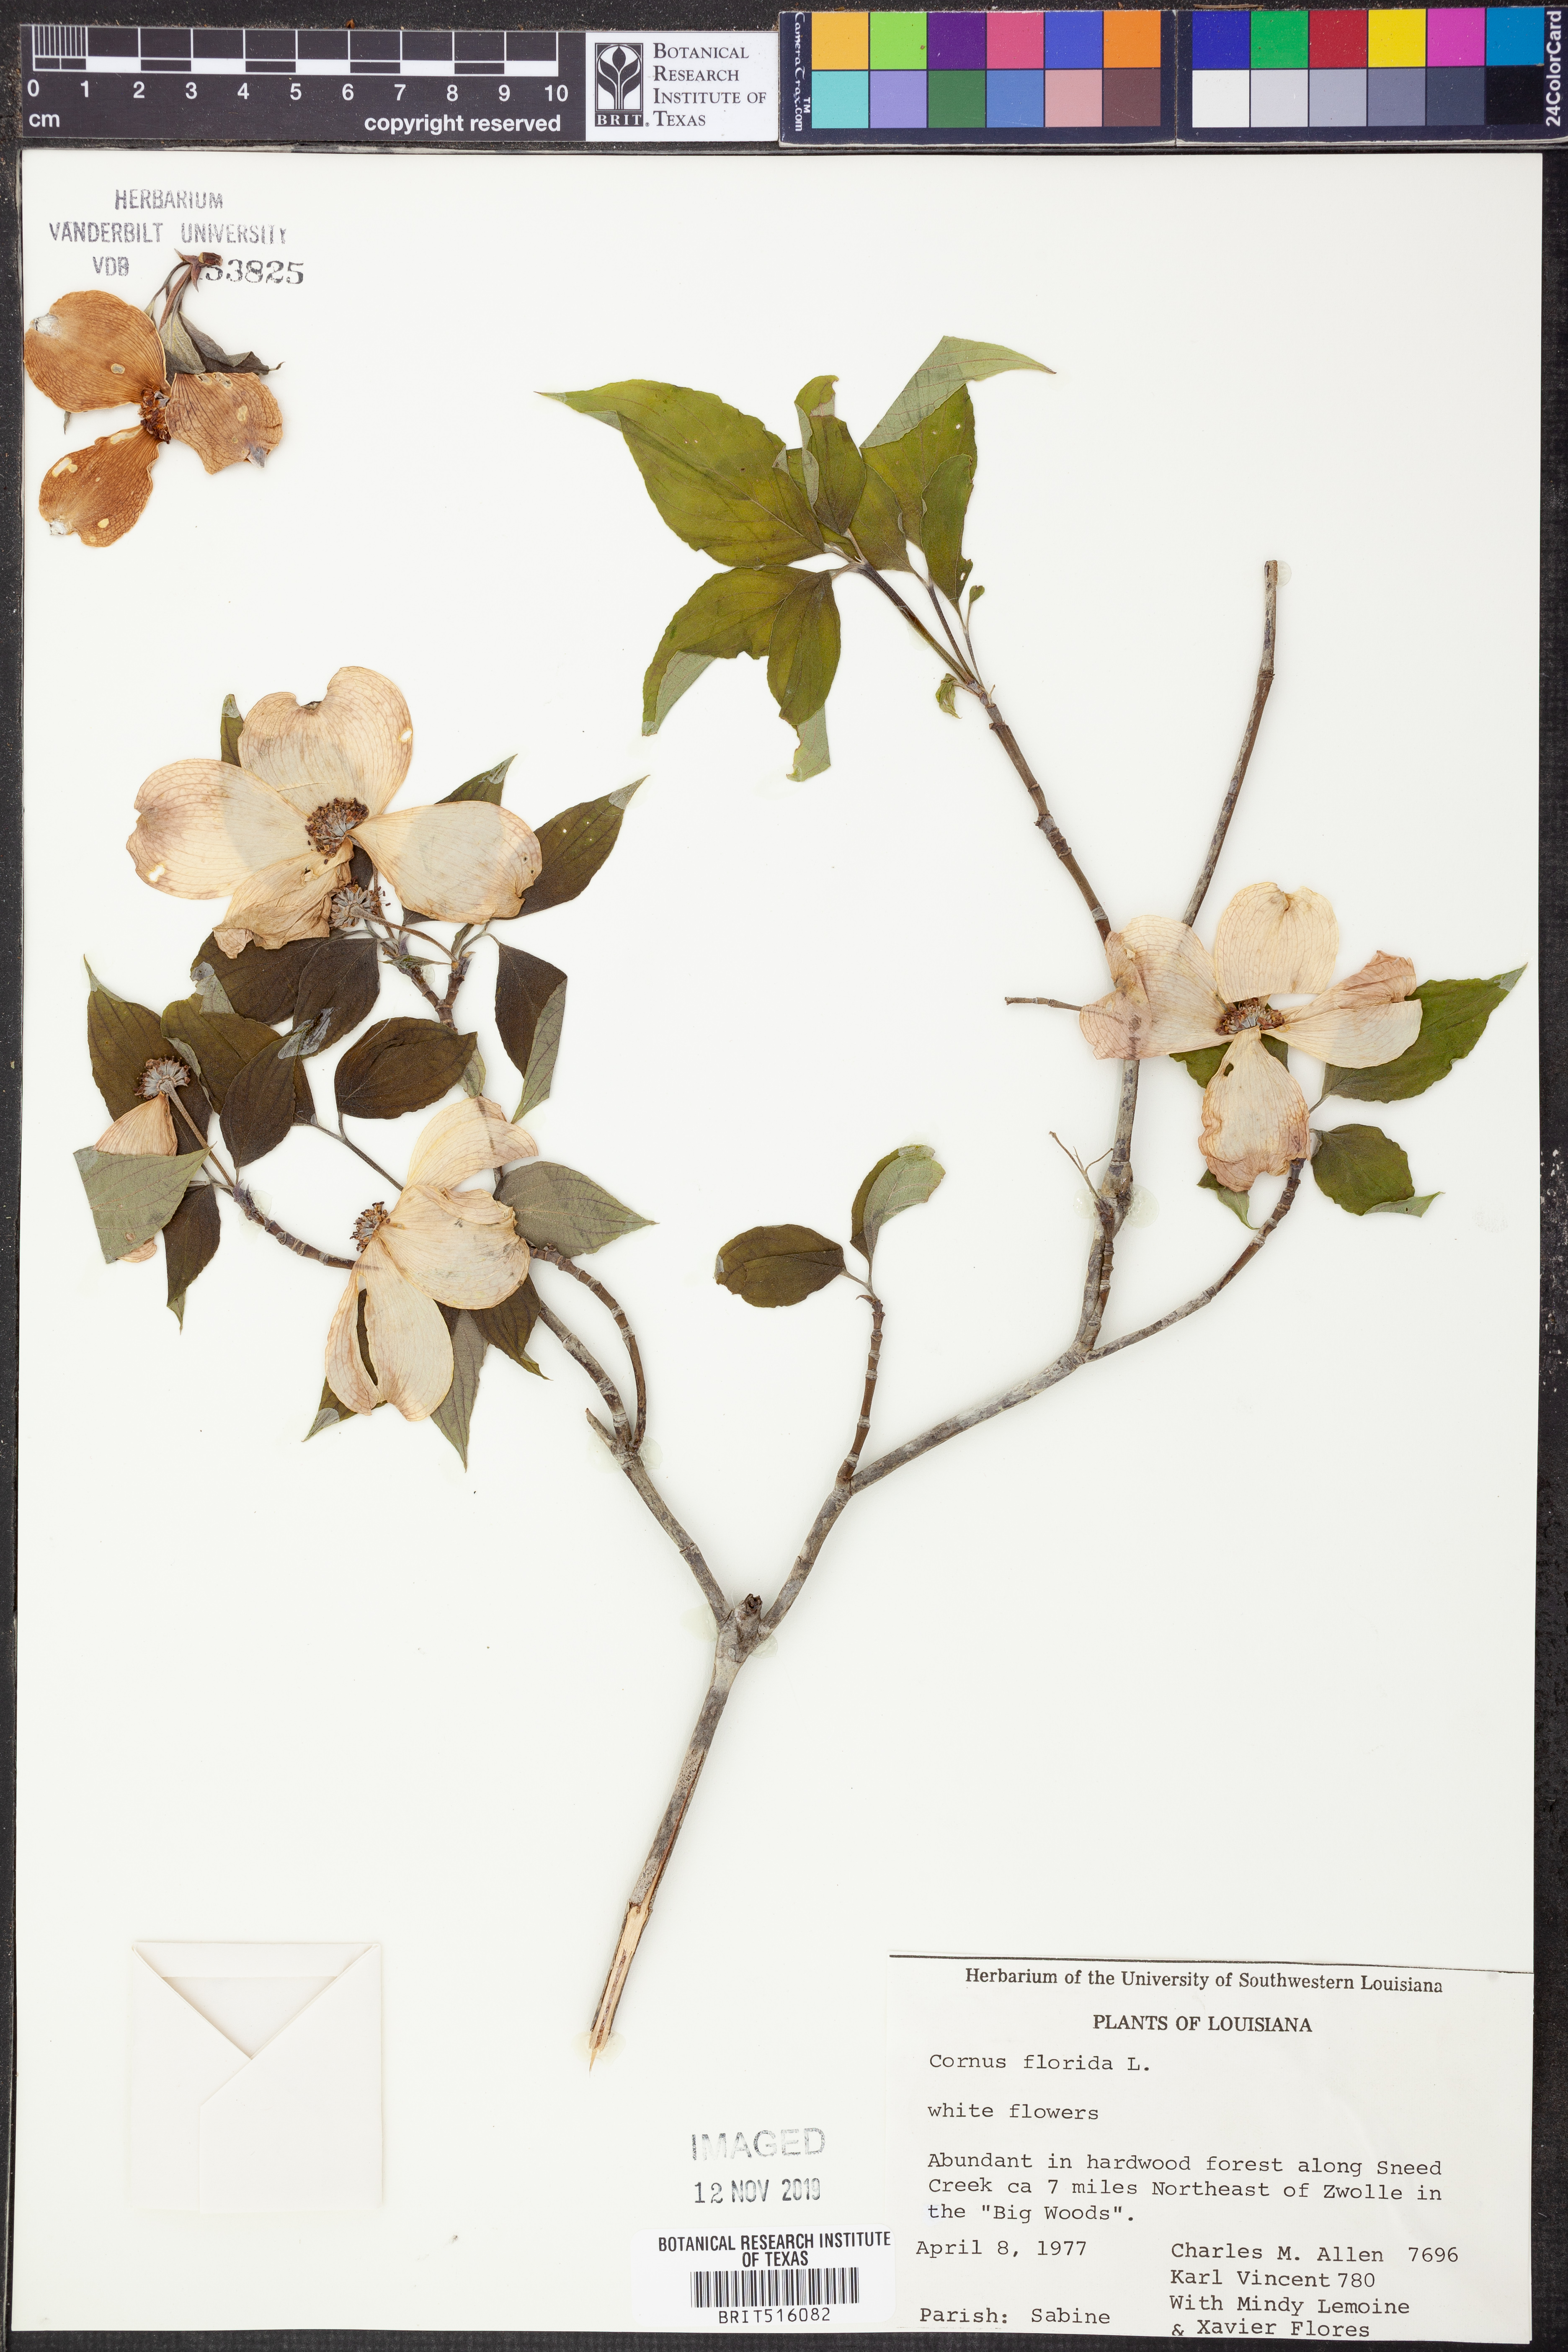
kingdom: Plantae
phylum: Tracheophyta
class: Magnoliopsida
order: Cornales
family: Cornaceae
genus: Cornus
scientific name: Cornus florida
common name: Flowering dogwood
